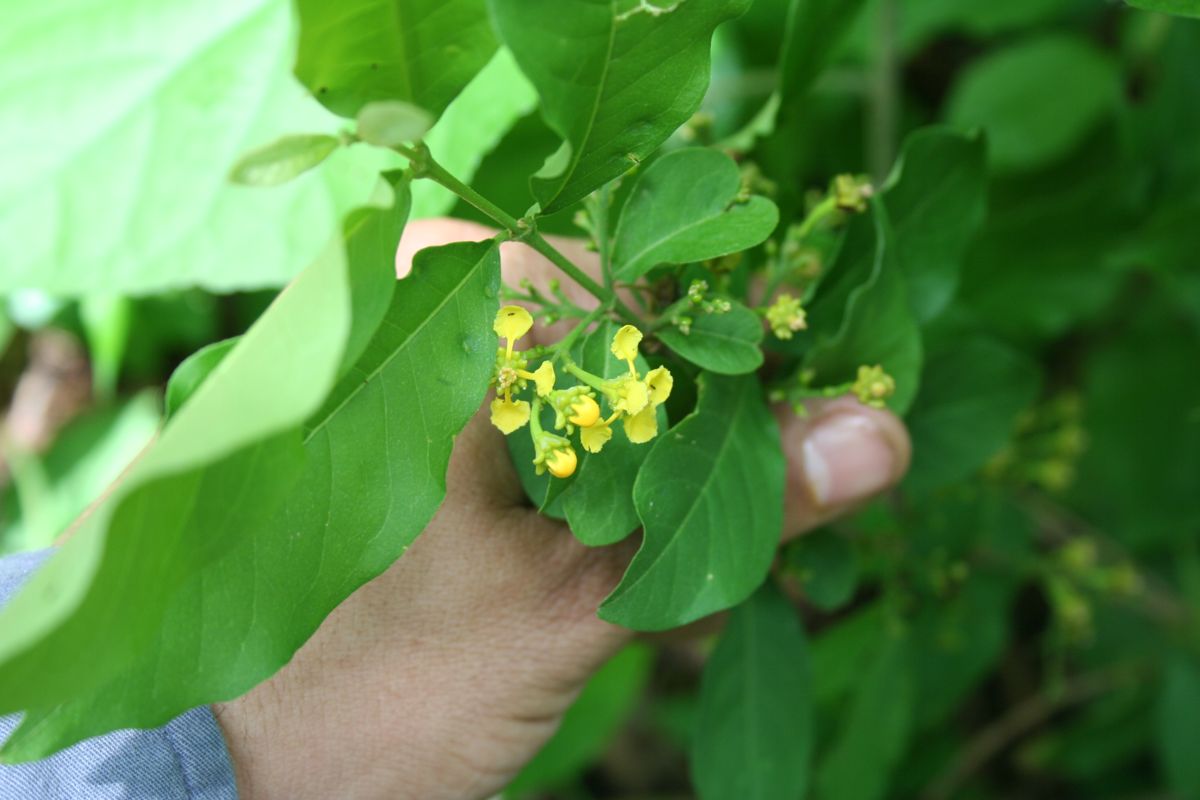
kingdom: Plantae
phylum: Tracheophyta
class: Magnoliopsida
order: Malpighiales
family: Malpighiaceae
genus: Bunchosia
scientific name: Bunchosia polystachya
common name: Woodland coffee
